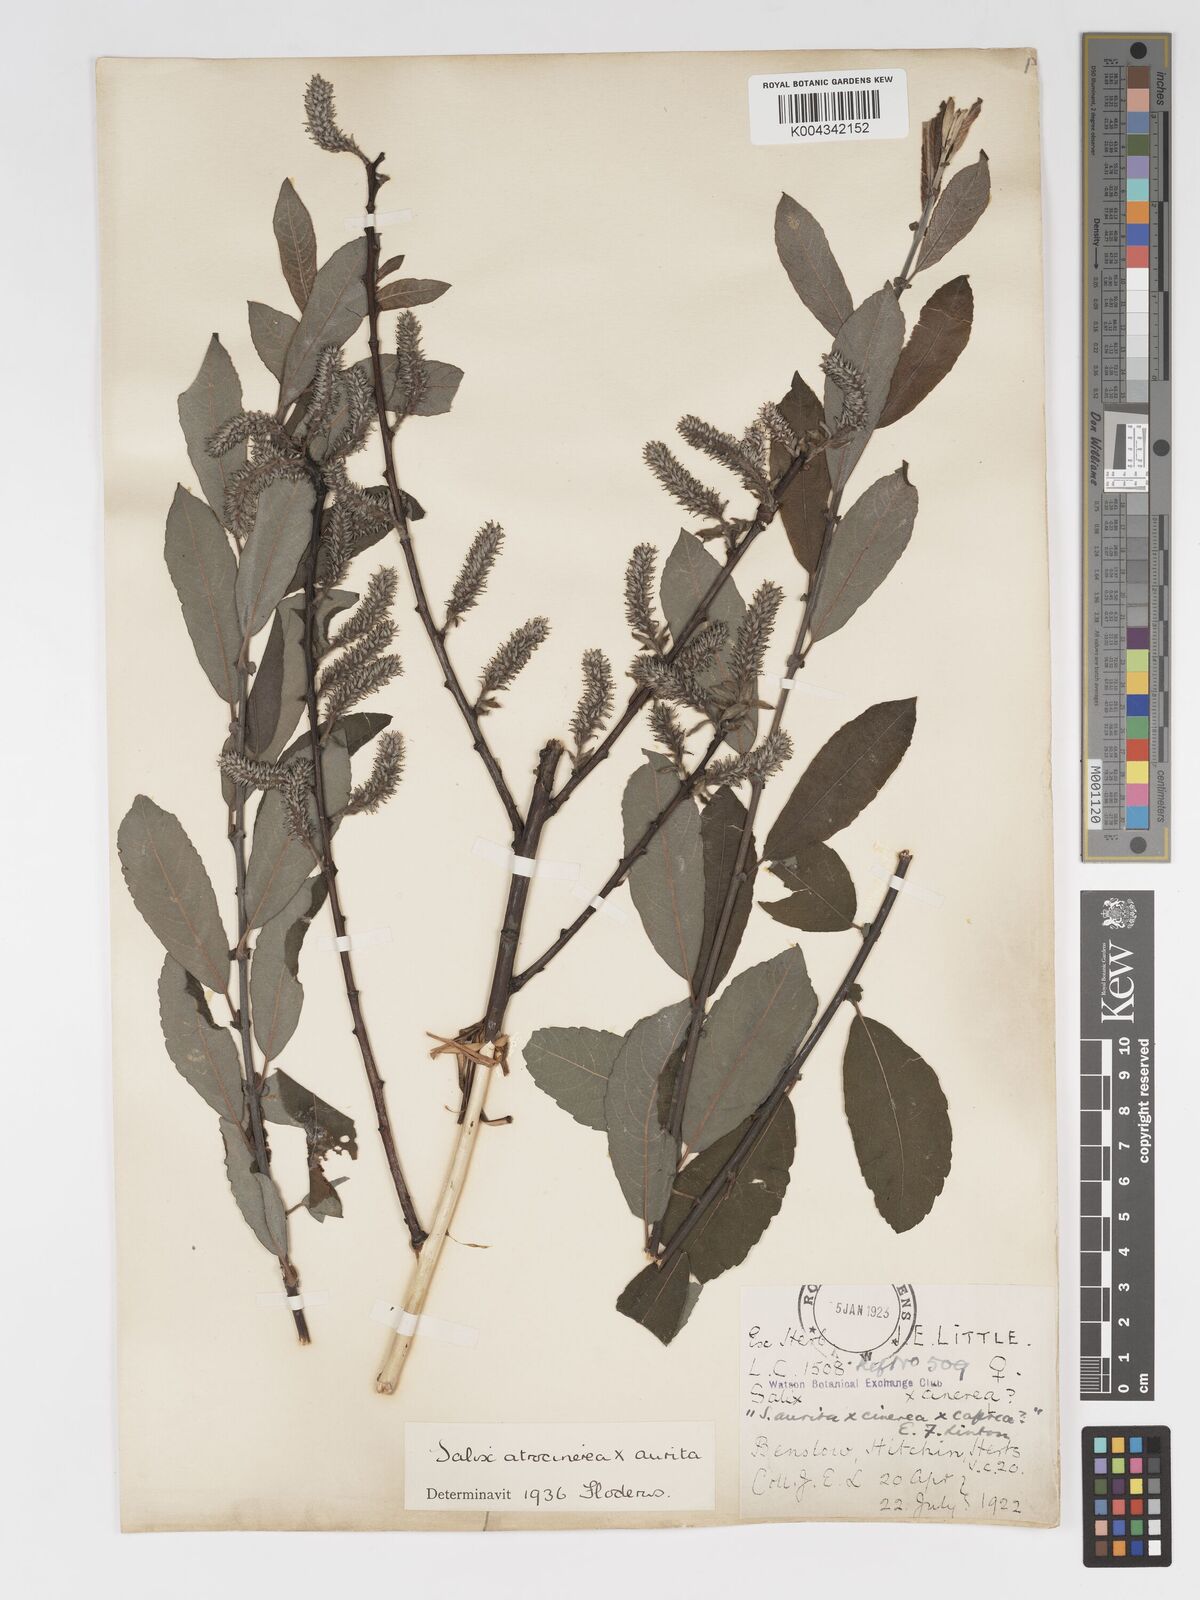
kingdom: Plantae
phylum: Tracheophyta
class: Magnoliopsida
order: Malpighiales
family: Salicaceae
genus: Salix
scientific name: Salix
